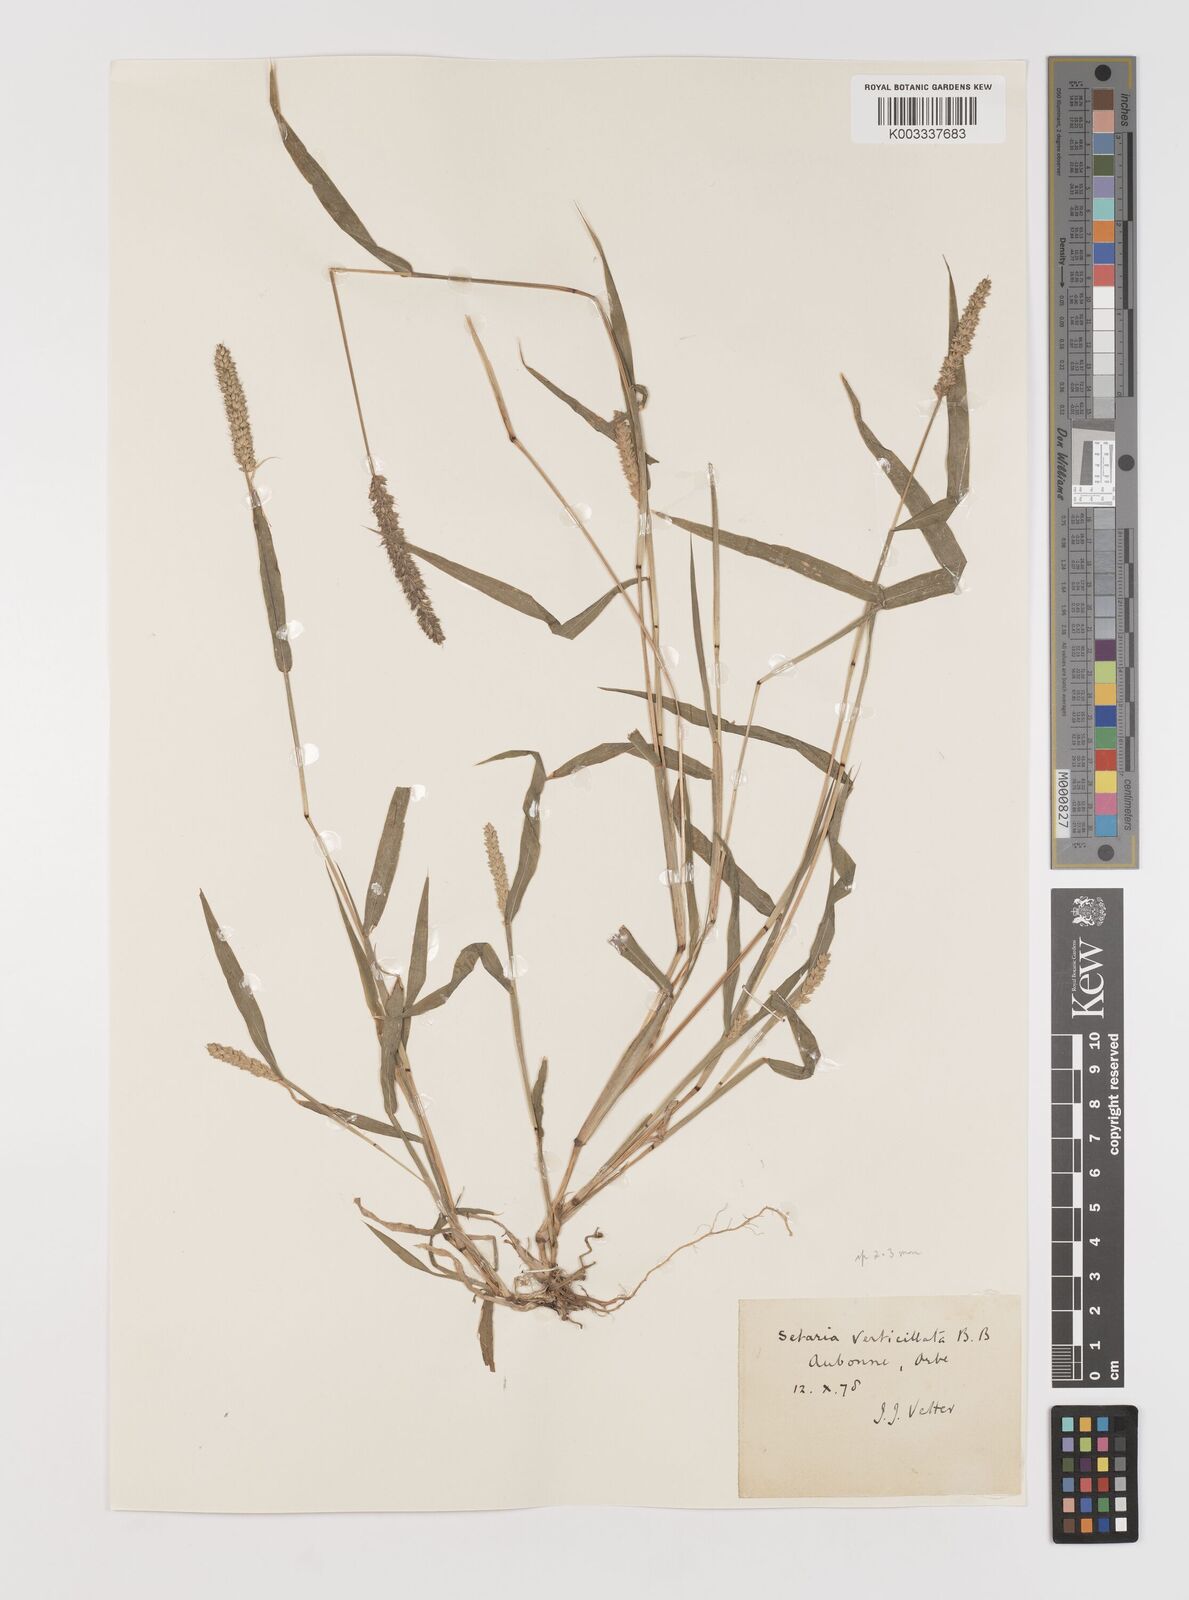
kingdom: Plantae
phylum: Tracheophyta
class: Liliopsida
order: Poales
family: Poaceae
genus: Setaria
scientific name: Setaria verticillata
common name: Hooked bristlegrass
